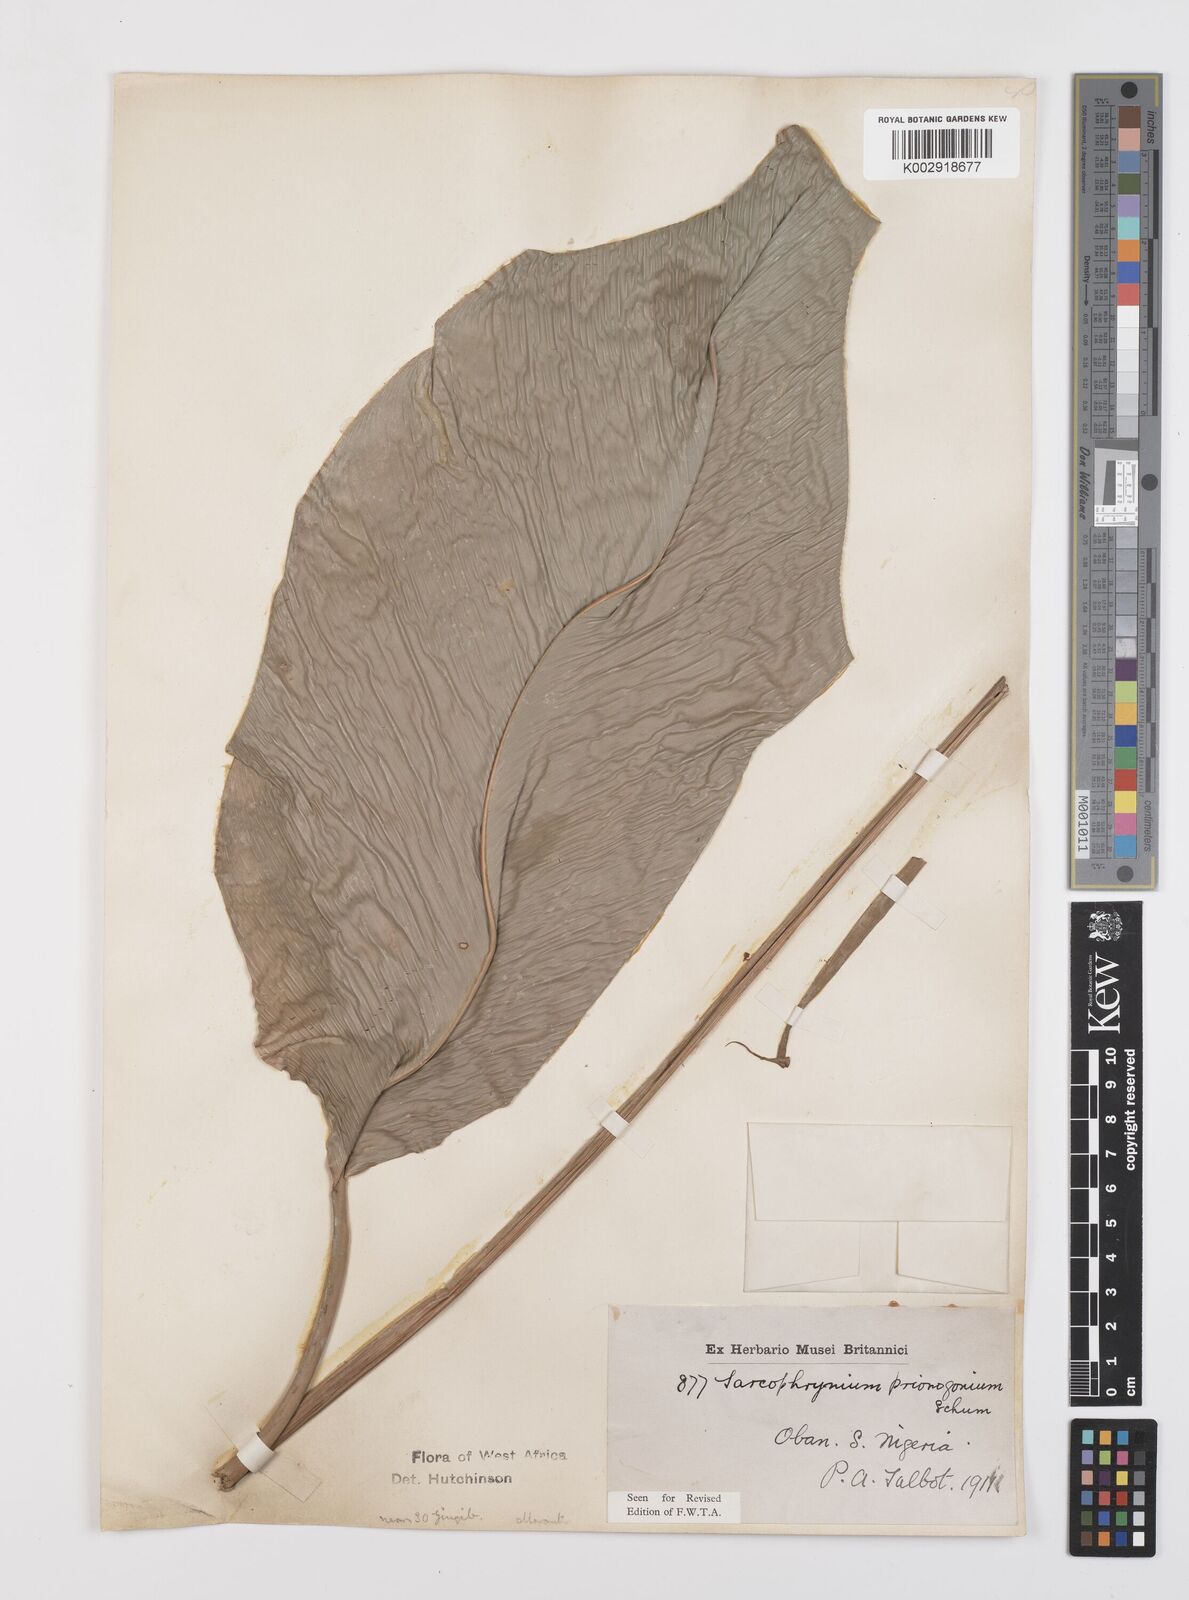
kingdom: Plantae
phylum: Tracheophyta
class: Liliopsida
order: Zingiberales
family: Marantaceae
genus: Sarcophrynium
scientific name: Sarcophrynium prionogonium
